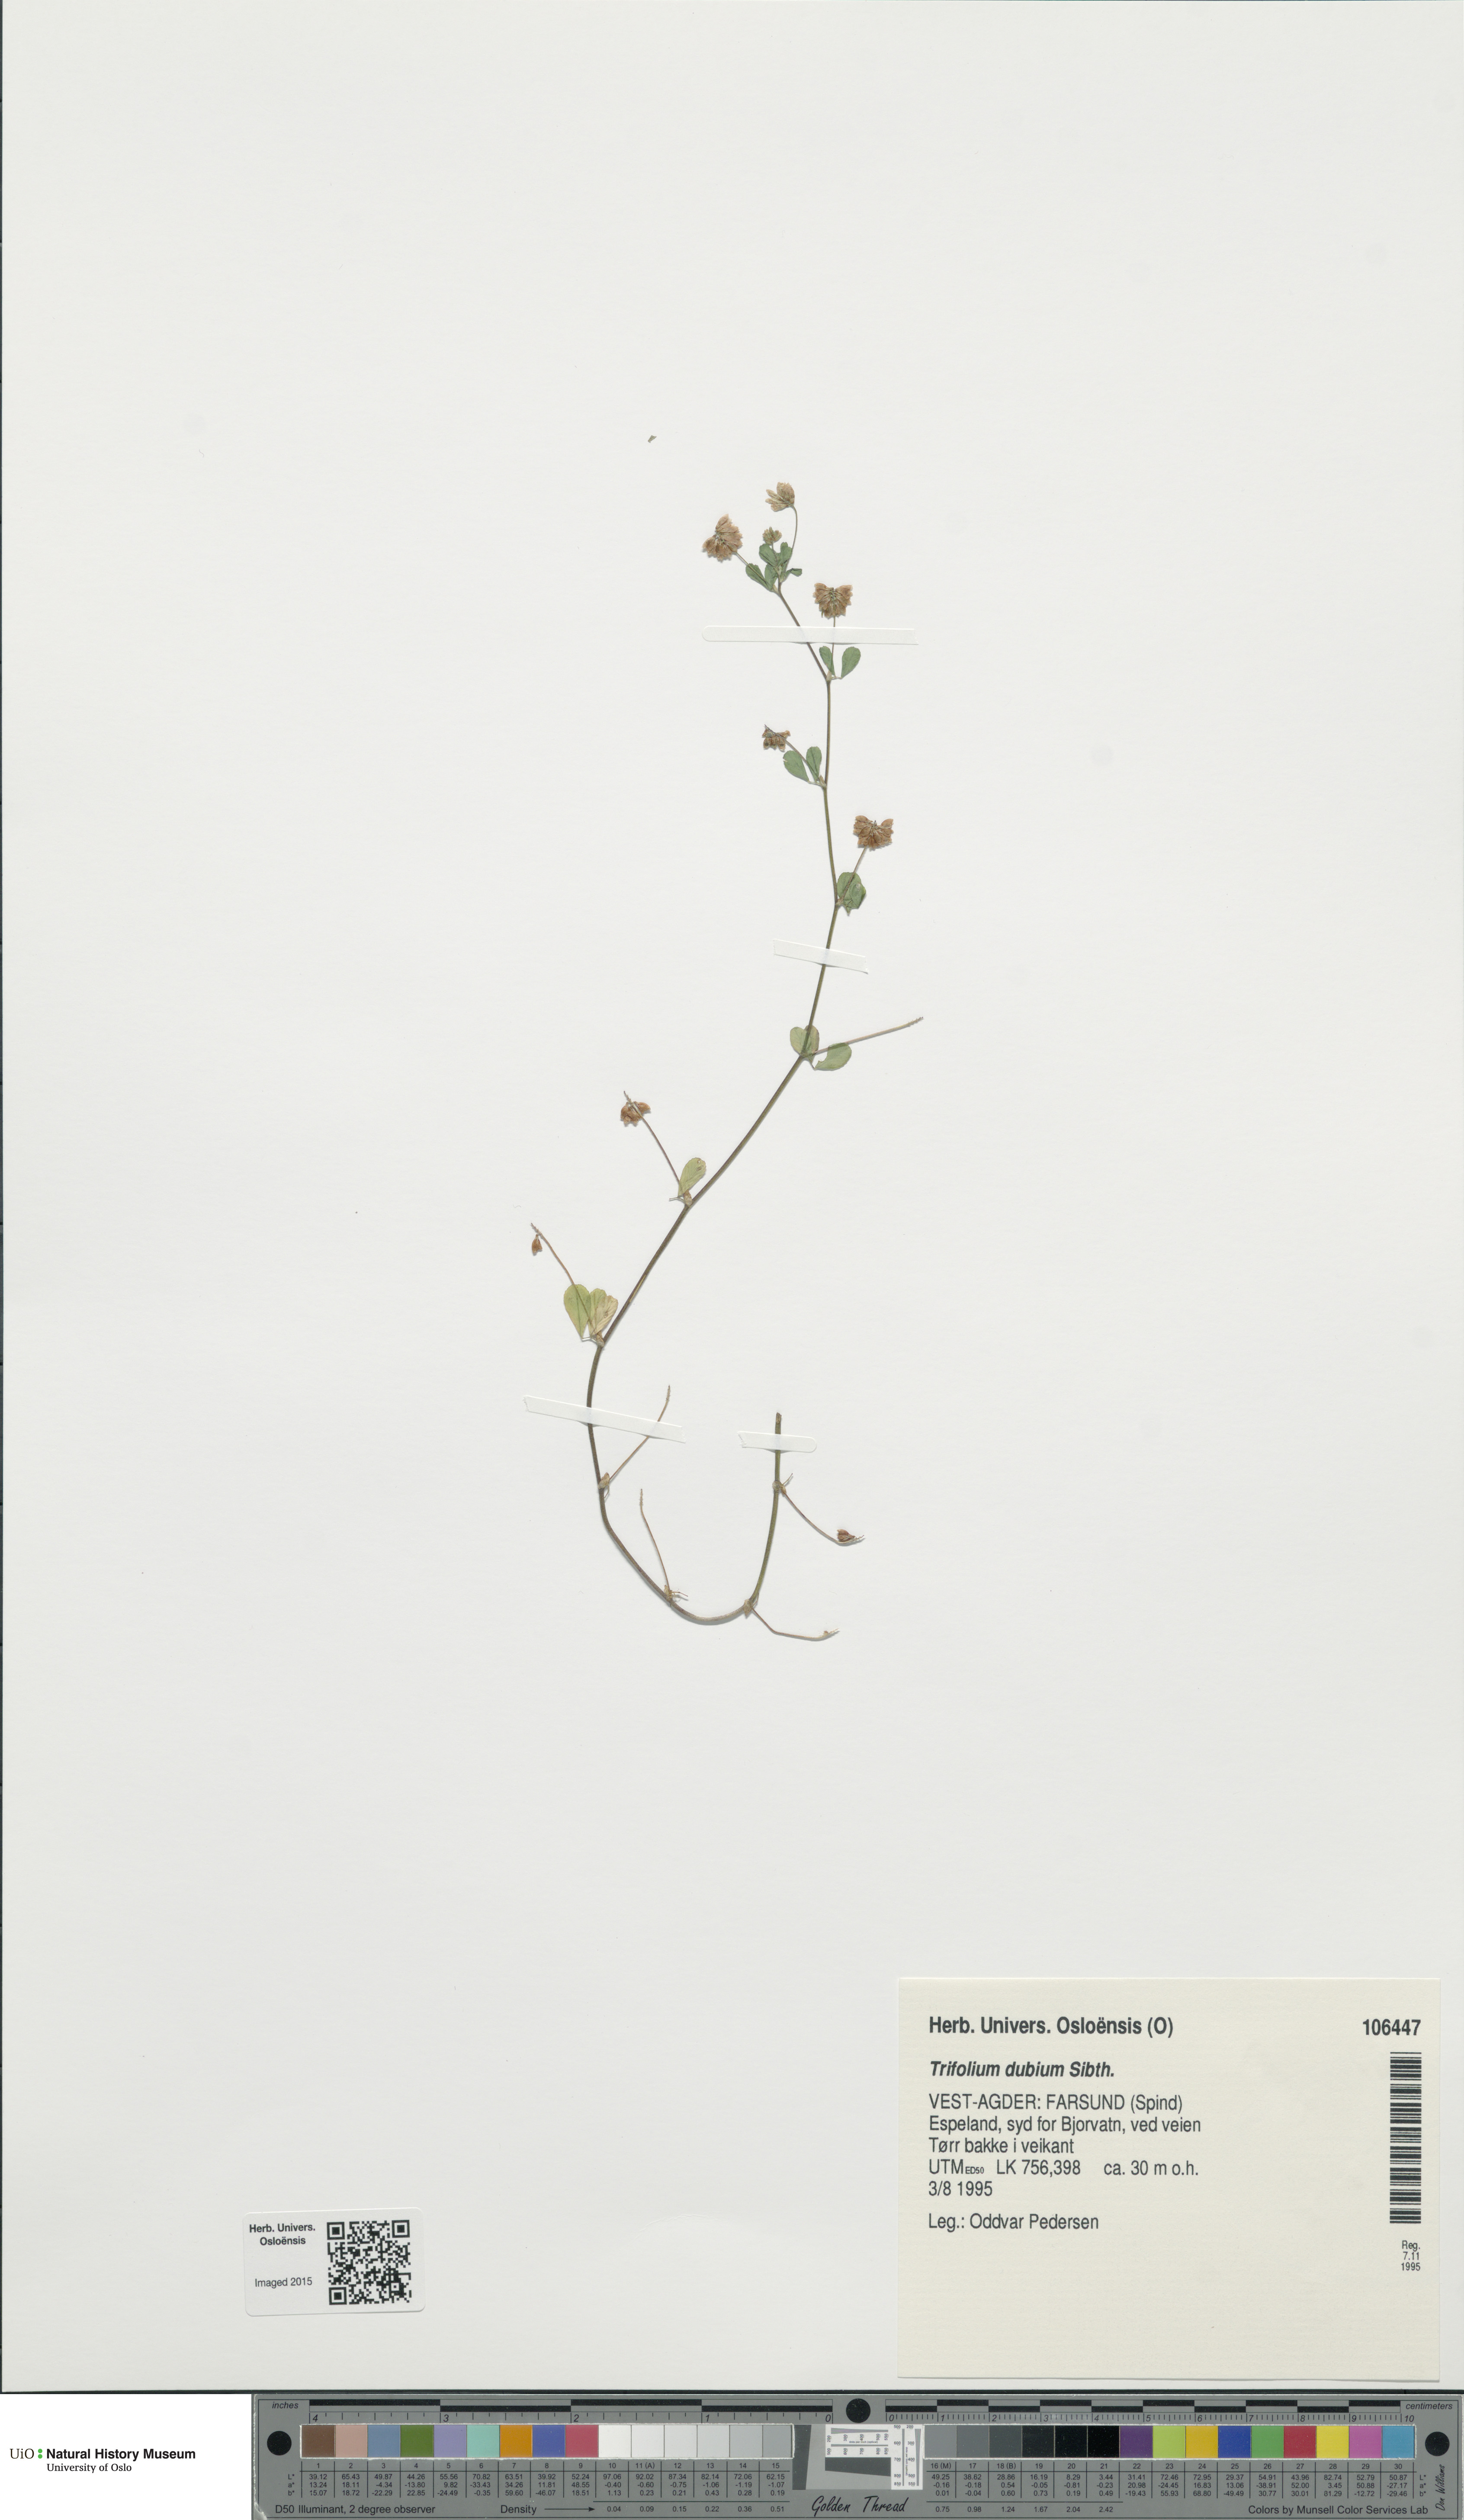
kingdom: Plantae
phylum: Tracheophyta
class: Magnoliopsida
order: Fabales
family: Fabaceae
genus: Trifolium
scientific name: Trifolium dubium
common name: Suckling clover
